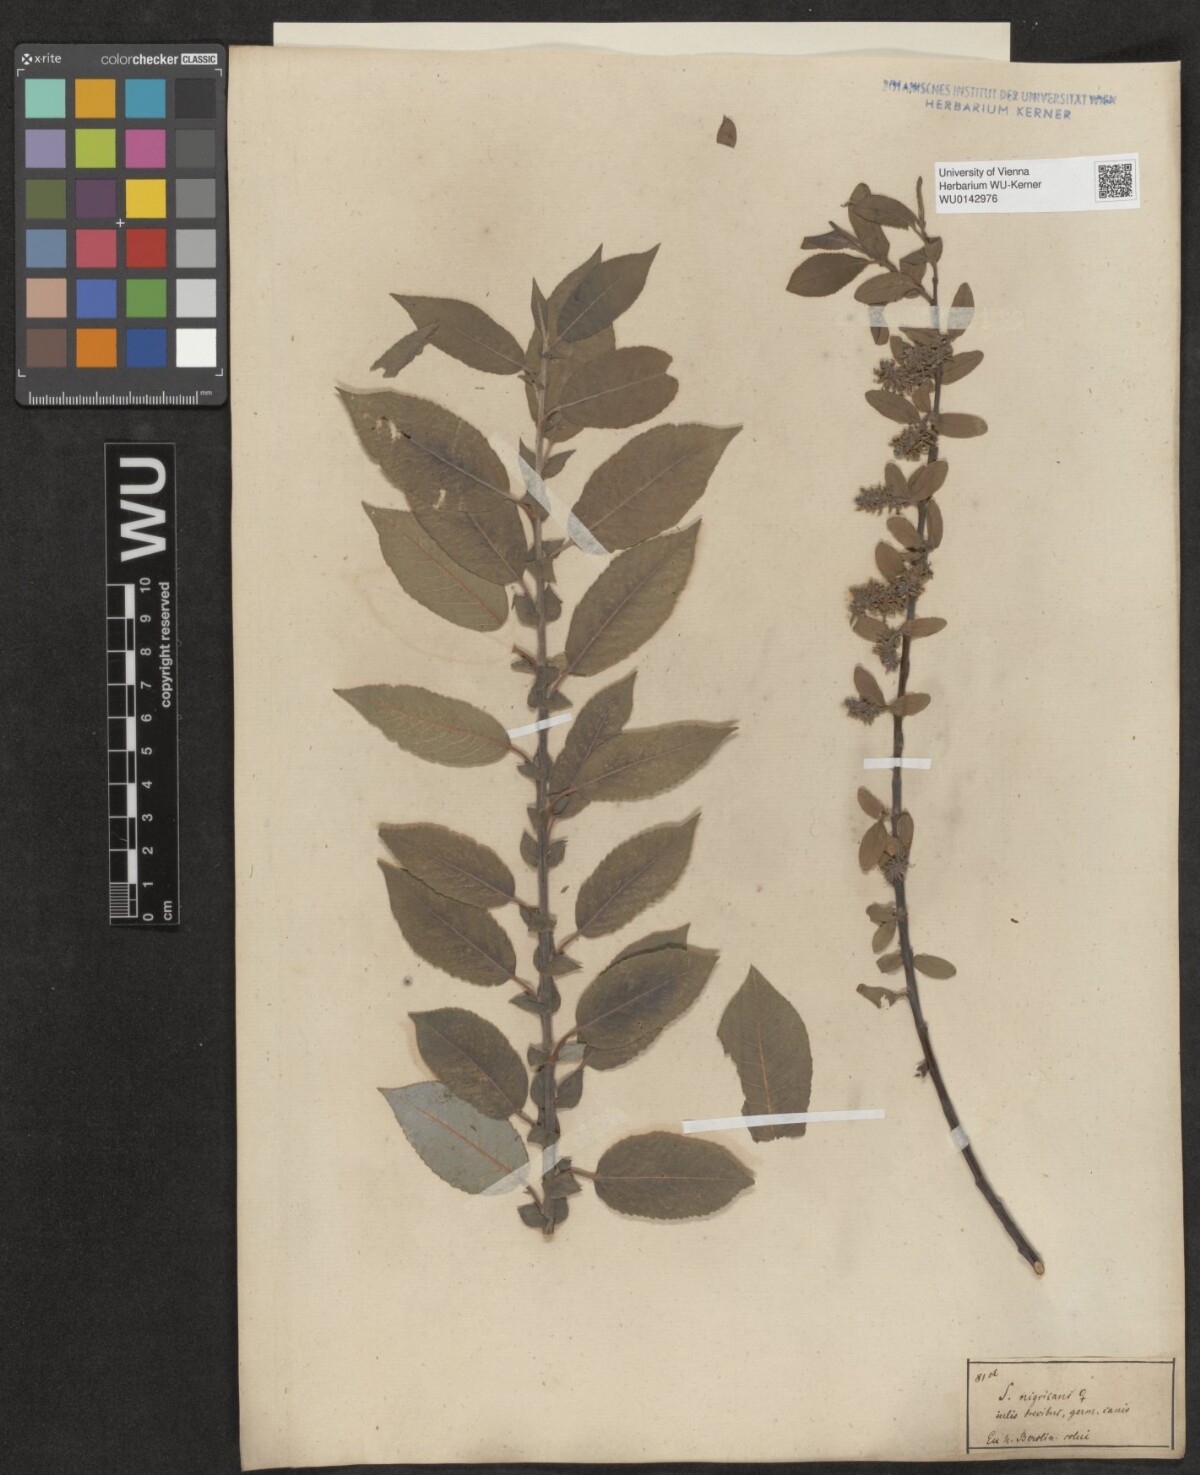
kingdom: Plantae
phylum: Tracheophyta
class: Magnoliopsida
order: Malpighiales
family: Salicaceae
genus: Salix
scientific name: Salix myrsinifolia
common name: Dark-leaved willow
